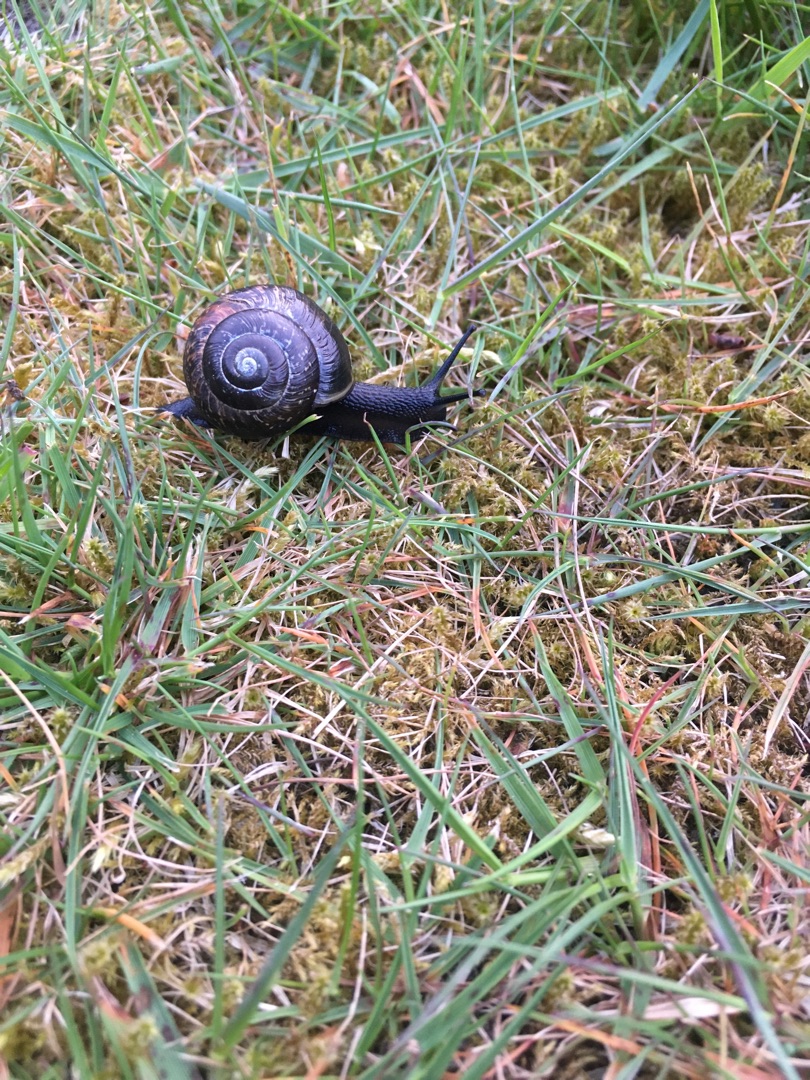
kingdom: Animalia
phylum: Mollusca
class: Gastropoda
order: Stylommatophora
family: Helicidae
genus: Arianta
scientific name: Arianta arbustorum
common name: Kratsnegl
